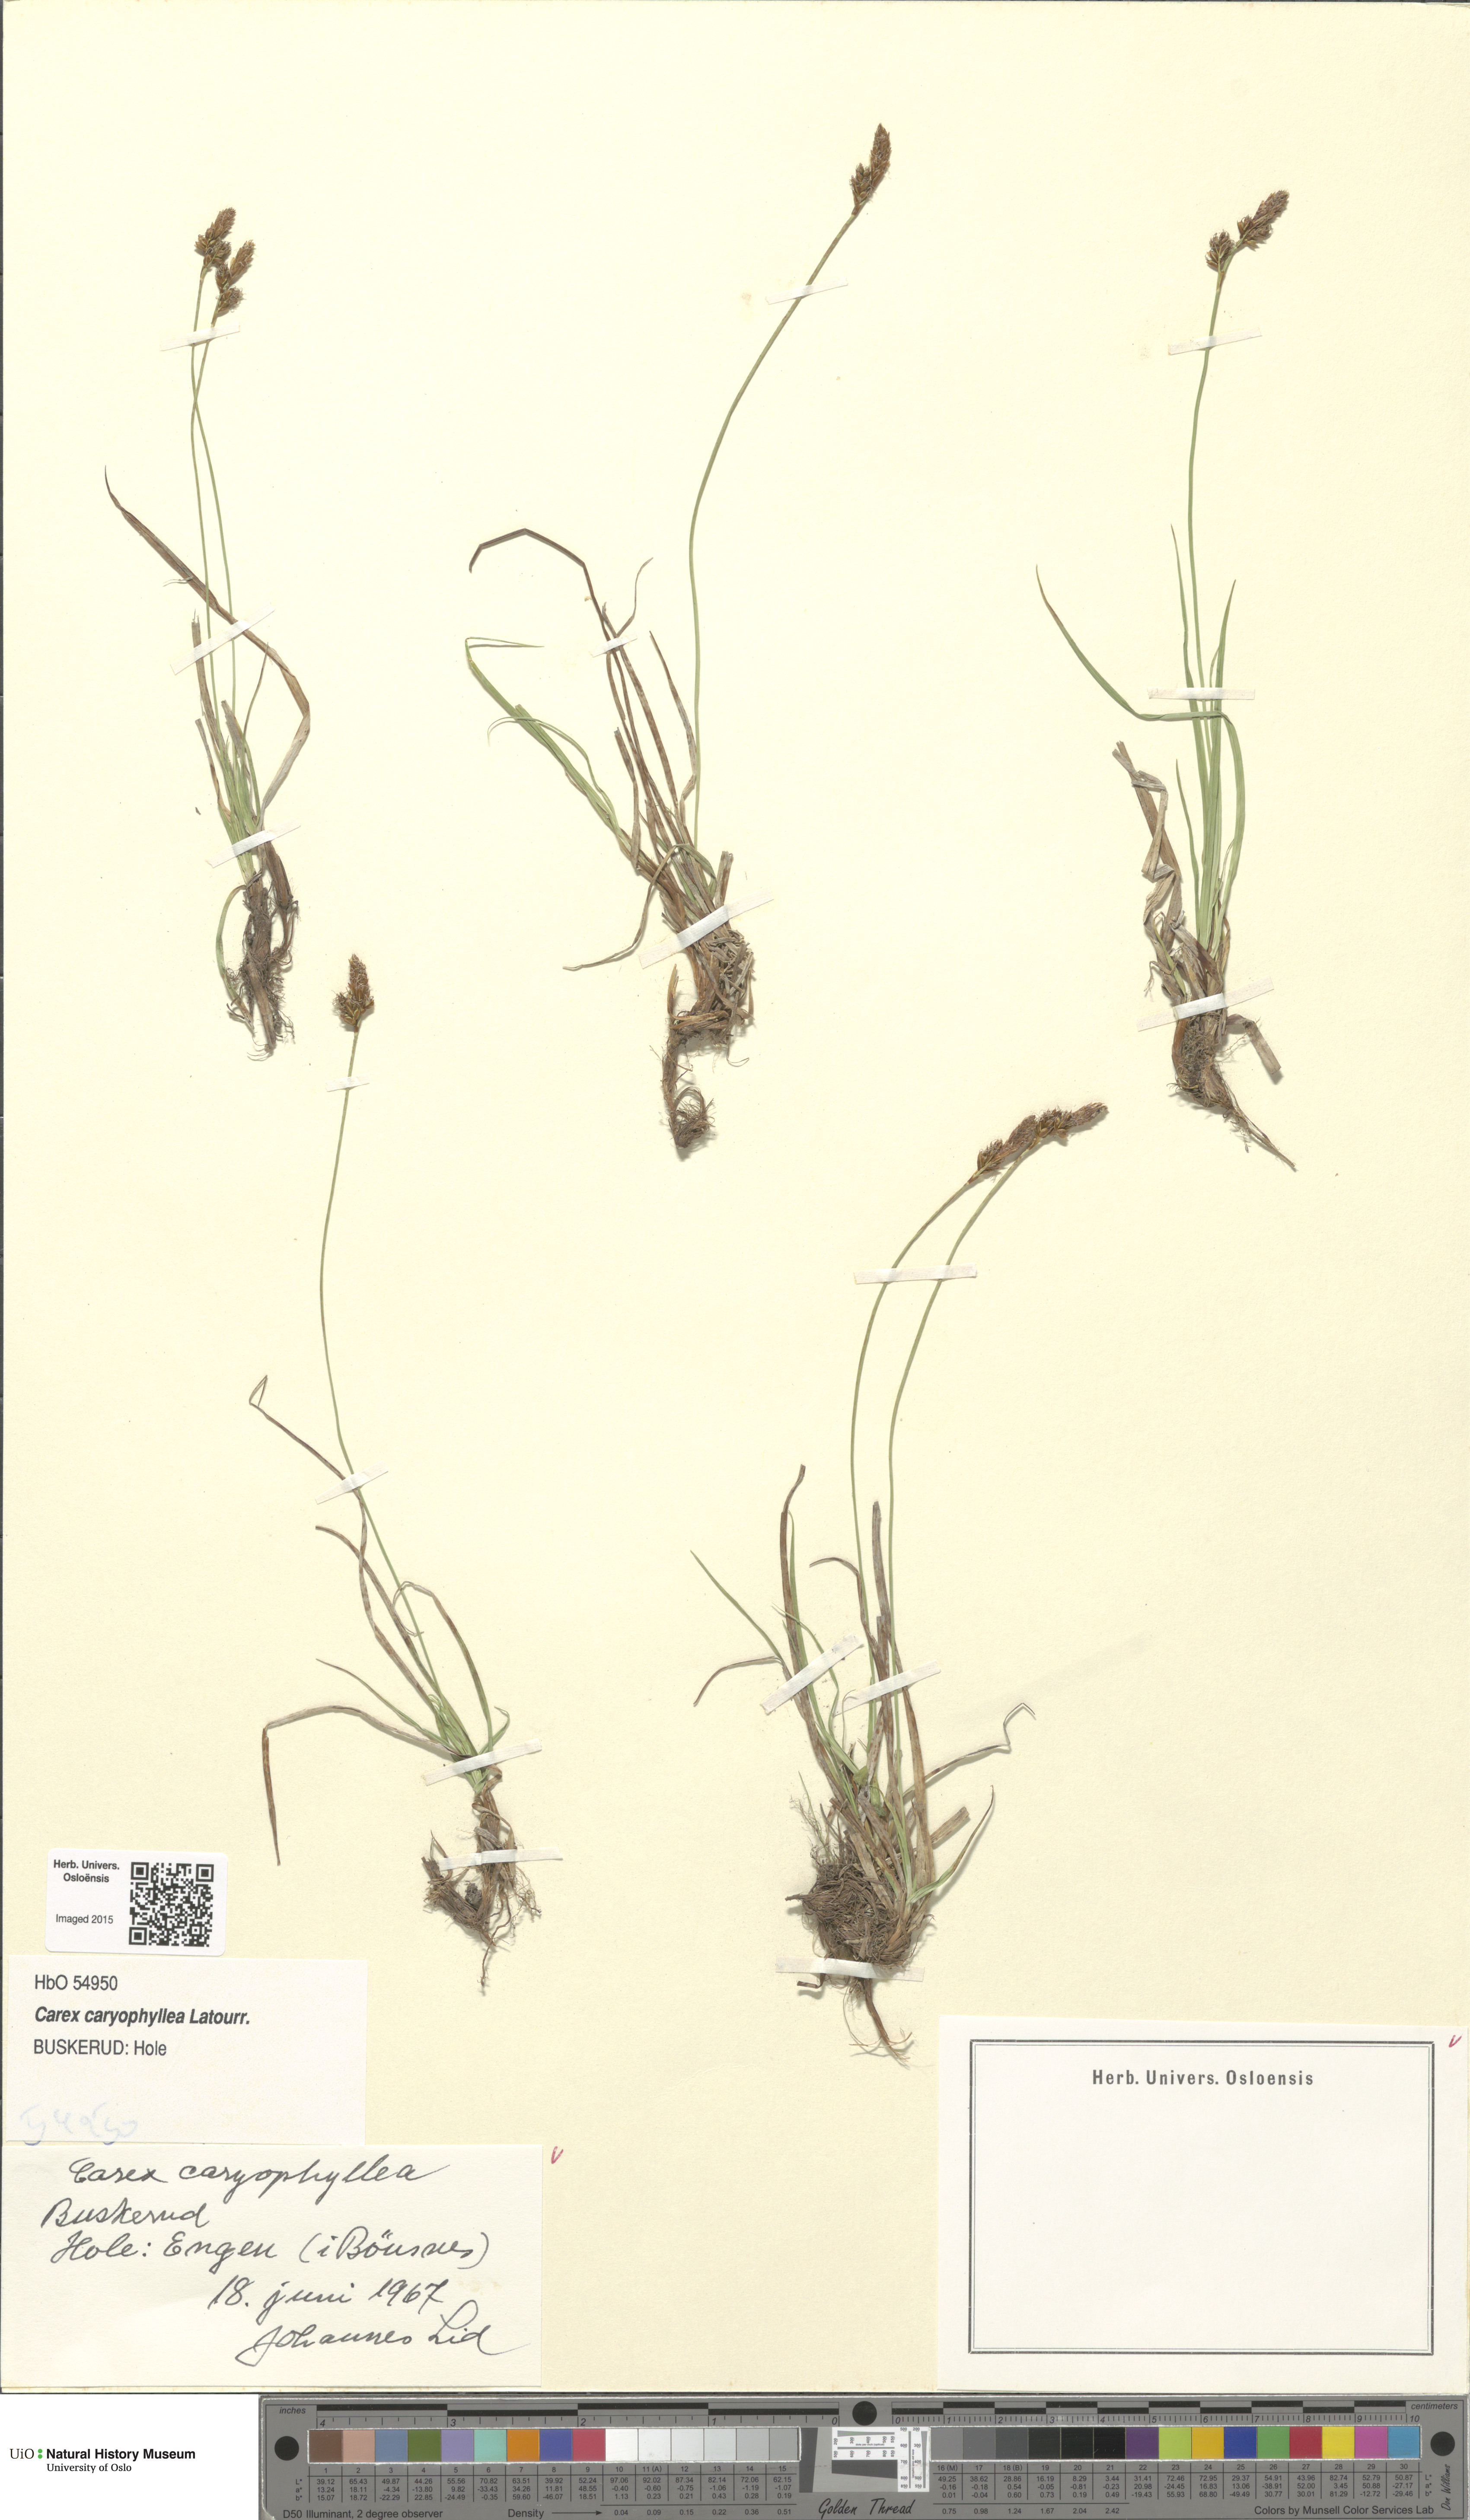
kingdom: Plantae
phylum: Tracheophyta
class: Liliopsida
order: Poales
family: Cyperaceae
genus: Carex
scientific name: Carex caryophyllea
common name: Spring sedge
